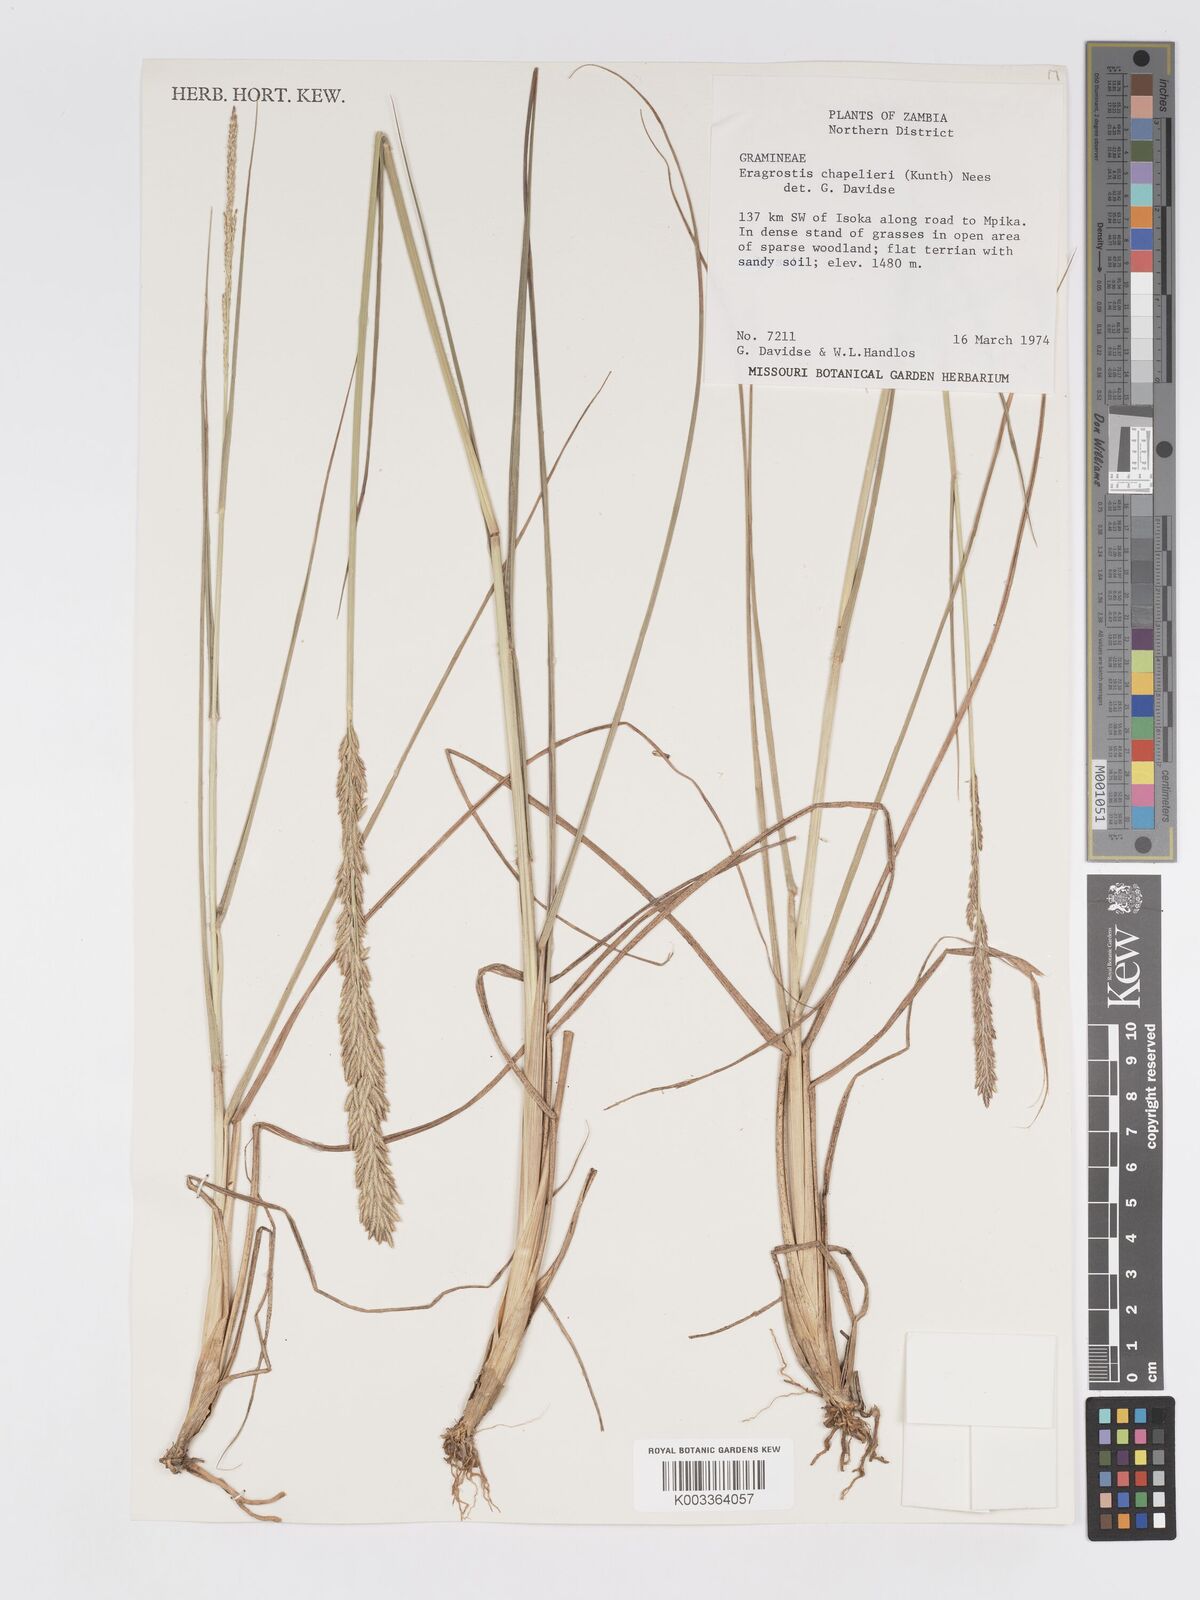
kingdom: Plantae
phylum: Tracheophyta
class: Liliopsida
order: Poales
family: Poaceae
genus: Eragrostis
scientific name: Eragrostis chapelieri
